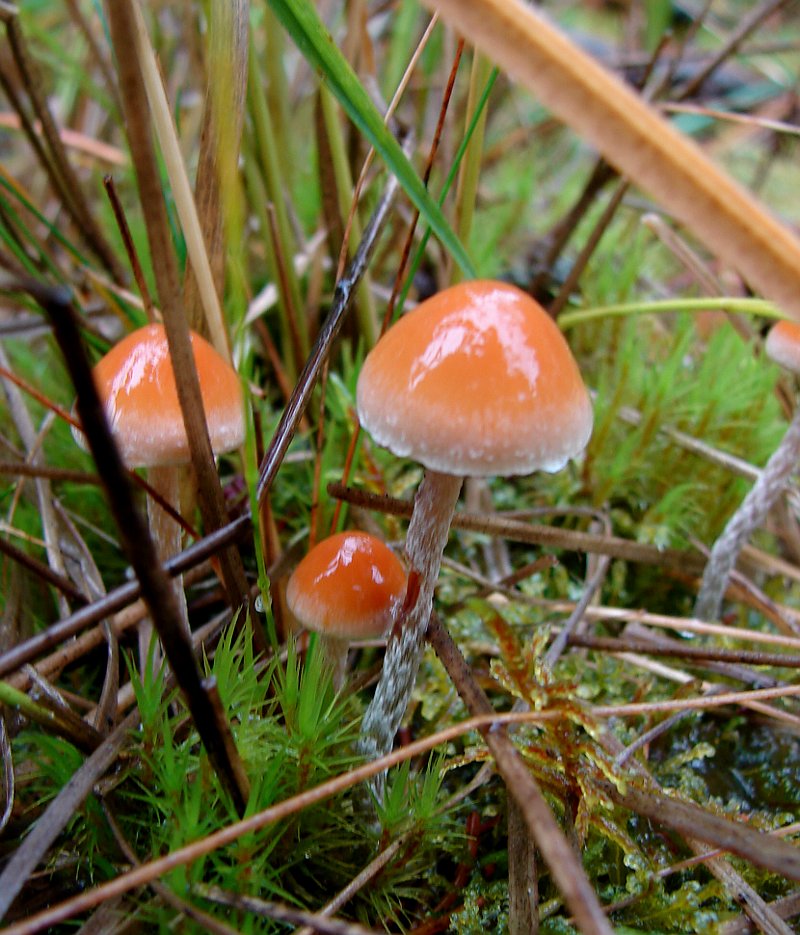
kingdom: Fungi
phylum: Basidiomycota
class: Agaricomycetes
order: Agaricales
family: Strophariaceae
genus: Hypholoma
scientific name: Hypholoma marginatum
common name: enlig svovlhat
